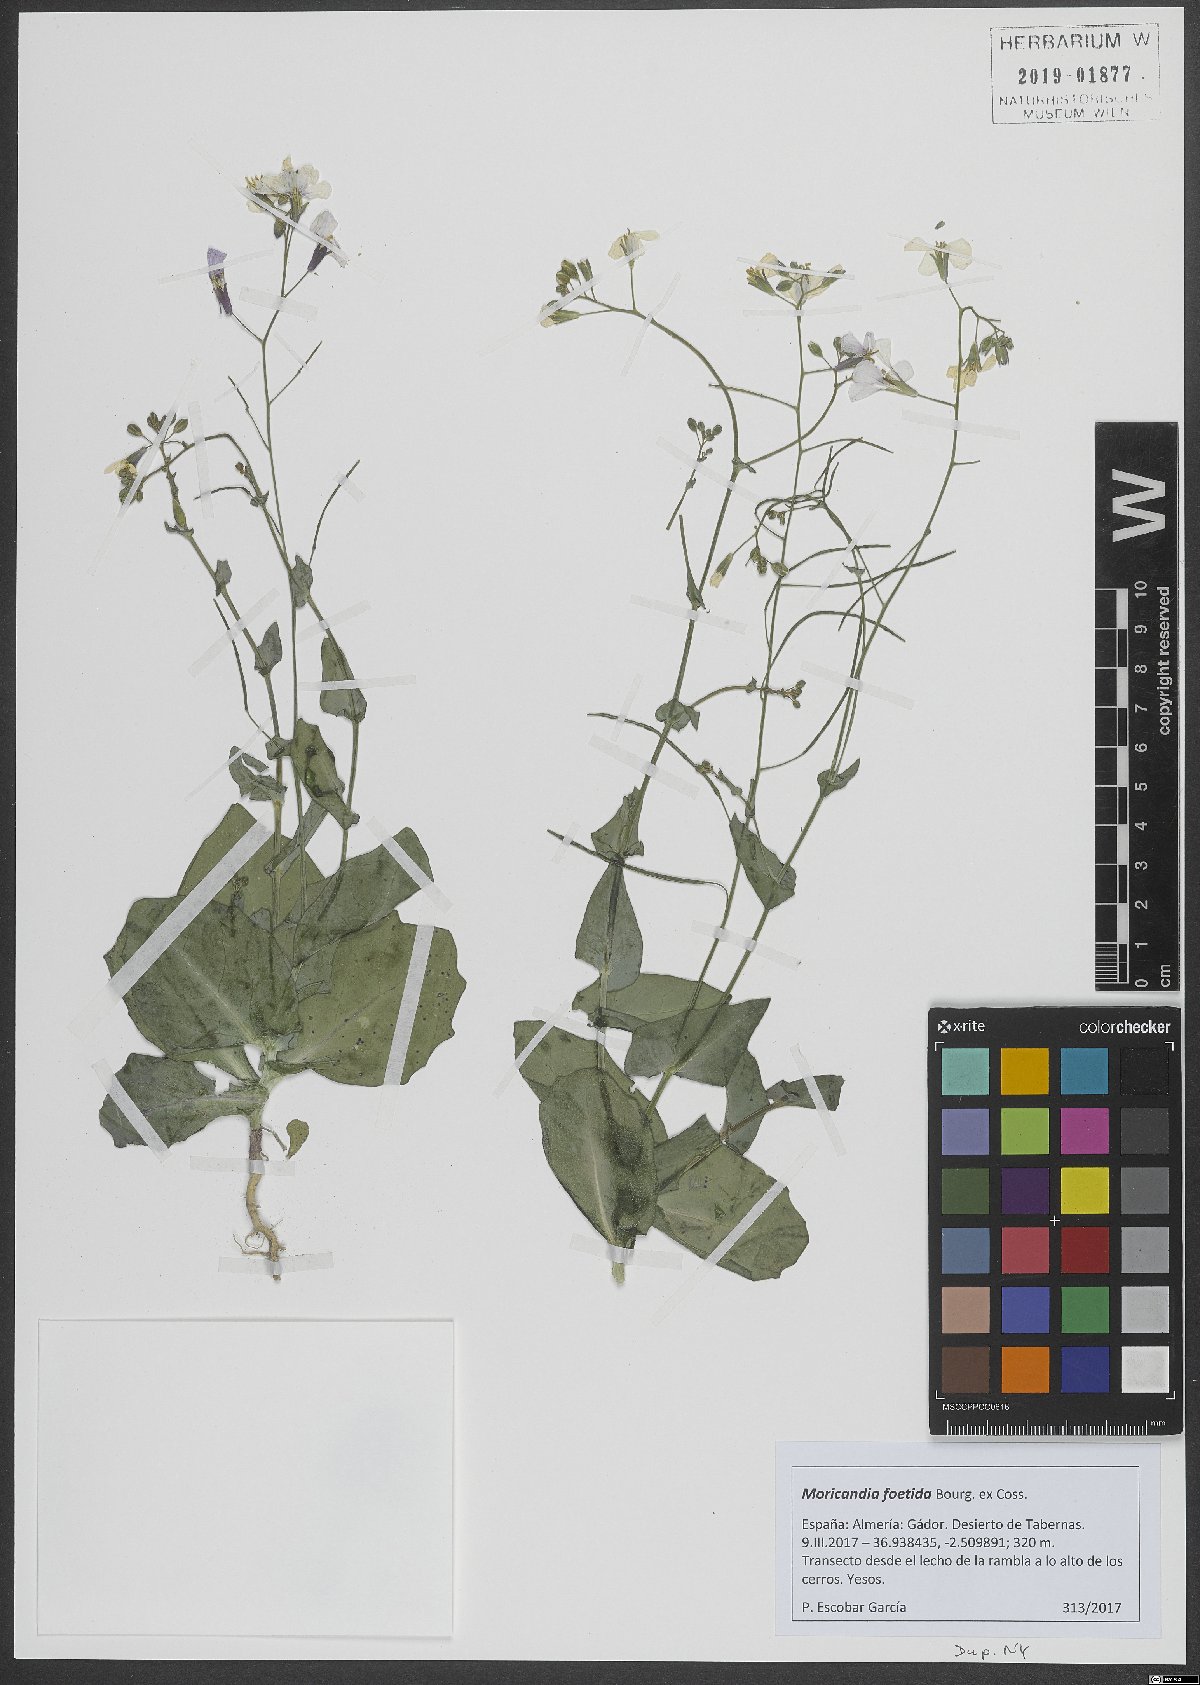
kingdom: Plantae
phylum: Tracheophyta
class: Magnoliopsida
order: Brassicales
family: Brassicaceae
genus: Moricandia
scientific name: Moricandia foetida
